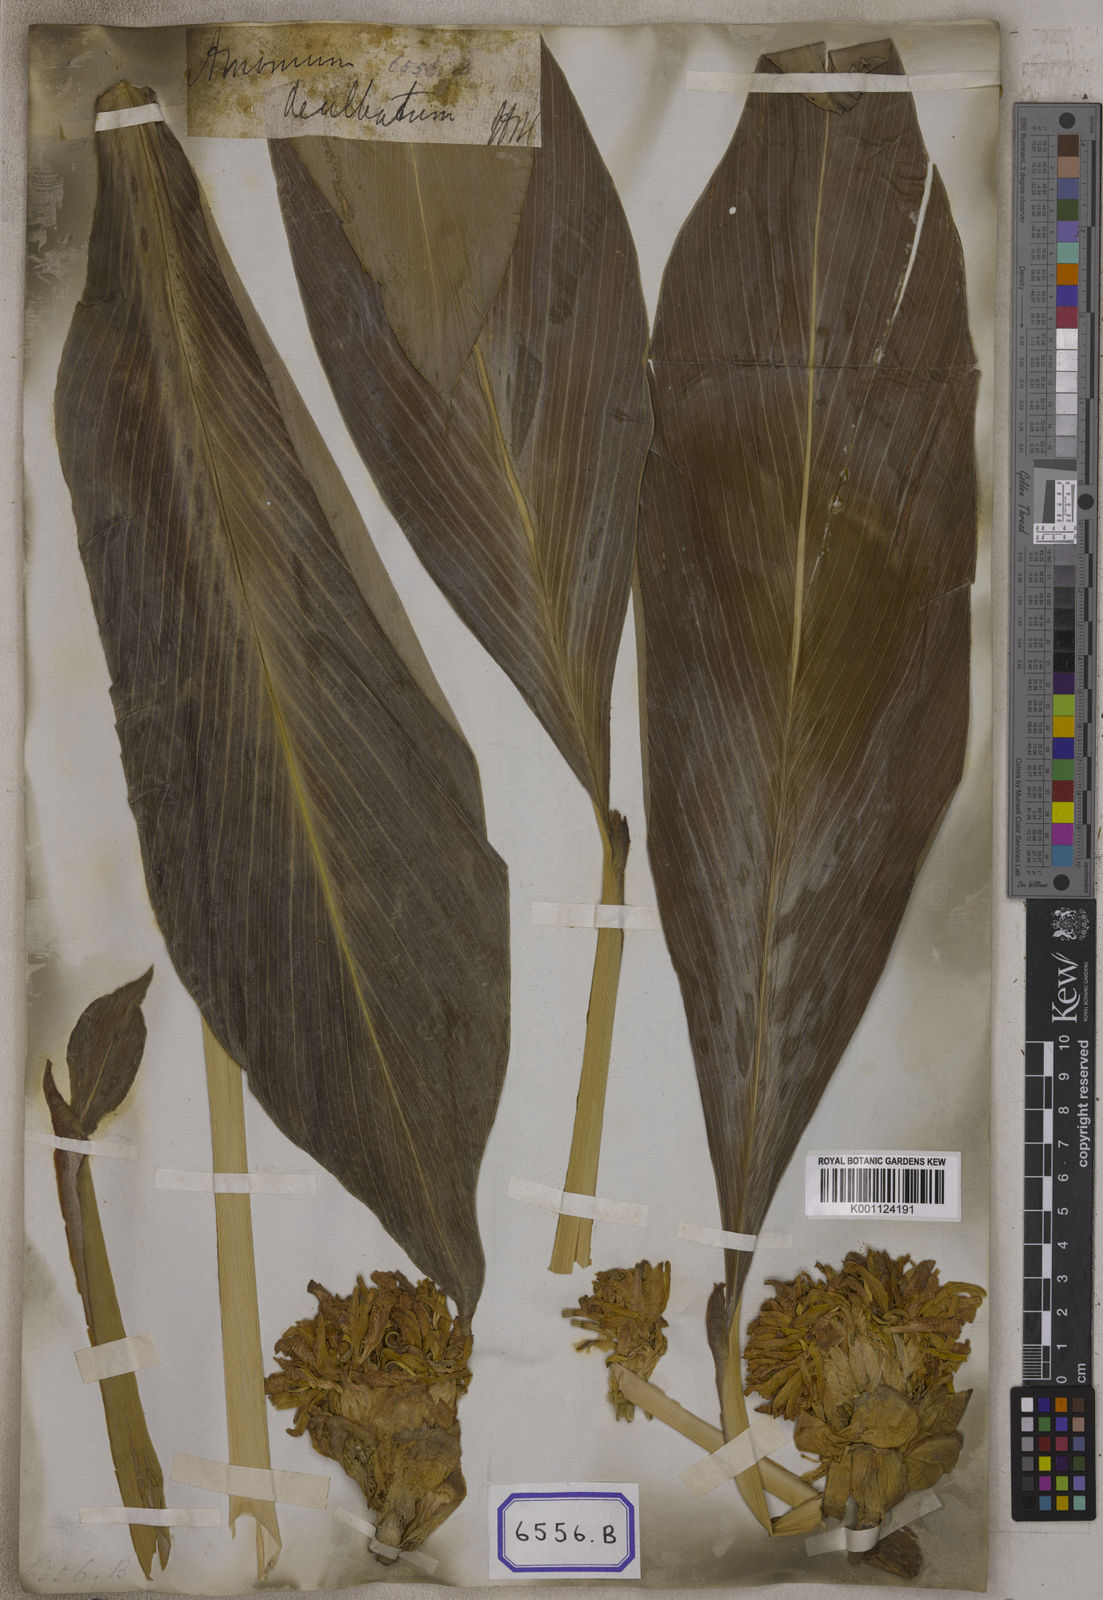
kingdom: Plantae
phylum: Tracheophyta
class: Liliopsida
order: Zingiberales
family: Zingiberaceae
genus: Amomum
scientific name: Amomum dealbatum
